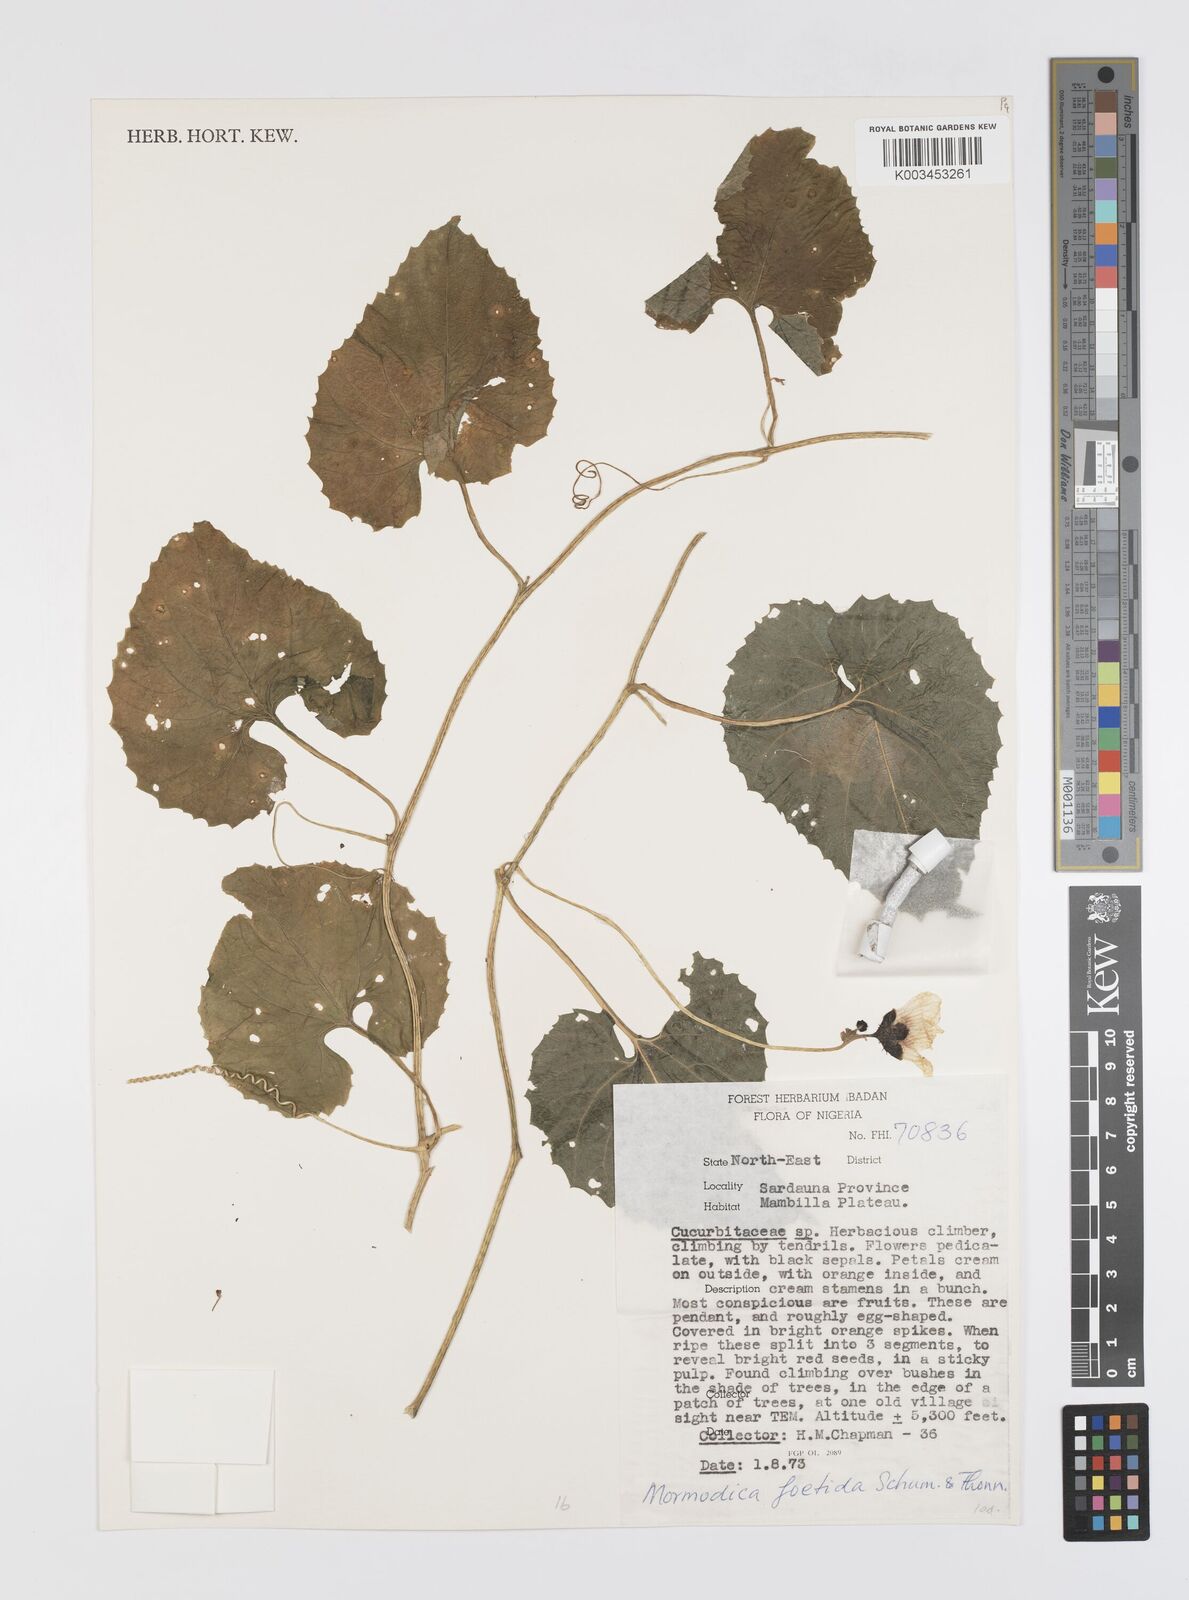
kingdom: Plantae
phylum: Tracheophyta
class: Magnoliopsida
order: Cucurbitales
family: Cucurbitaceae
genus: Momordica
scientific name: Momordica foetida
